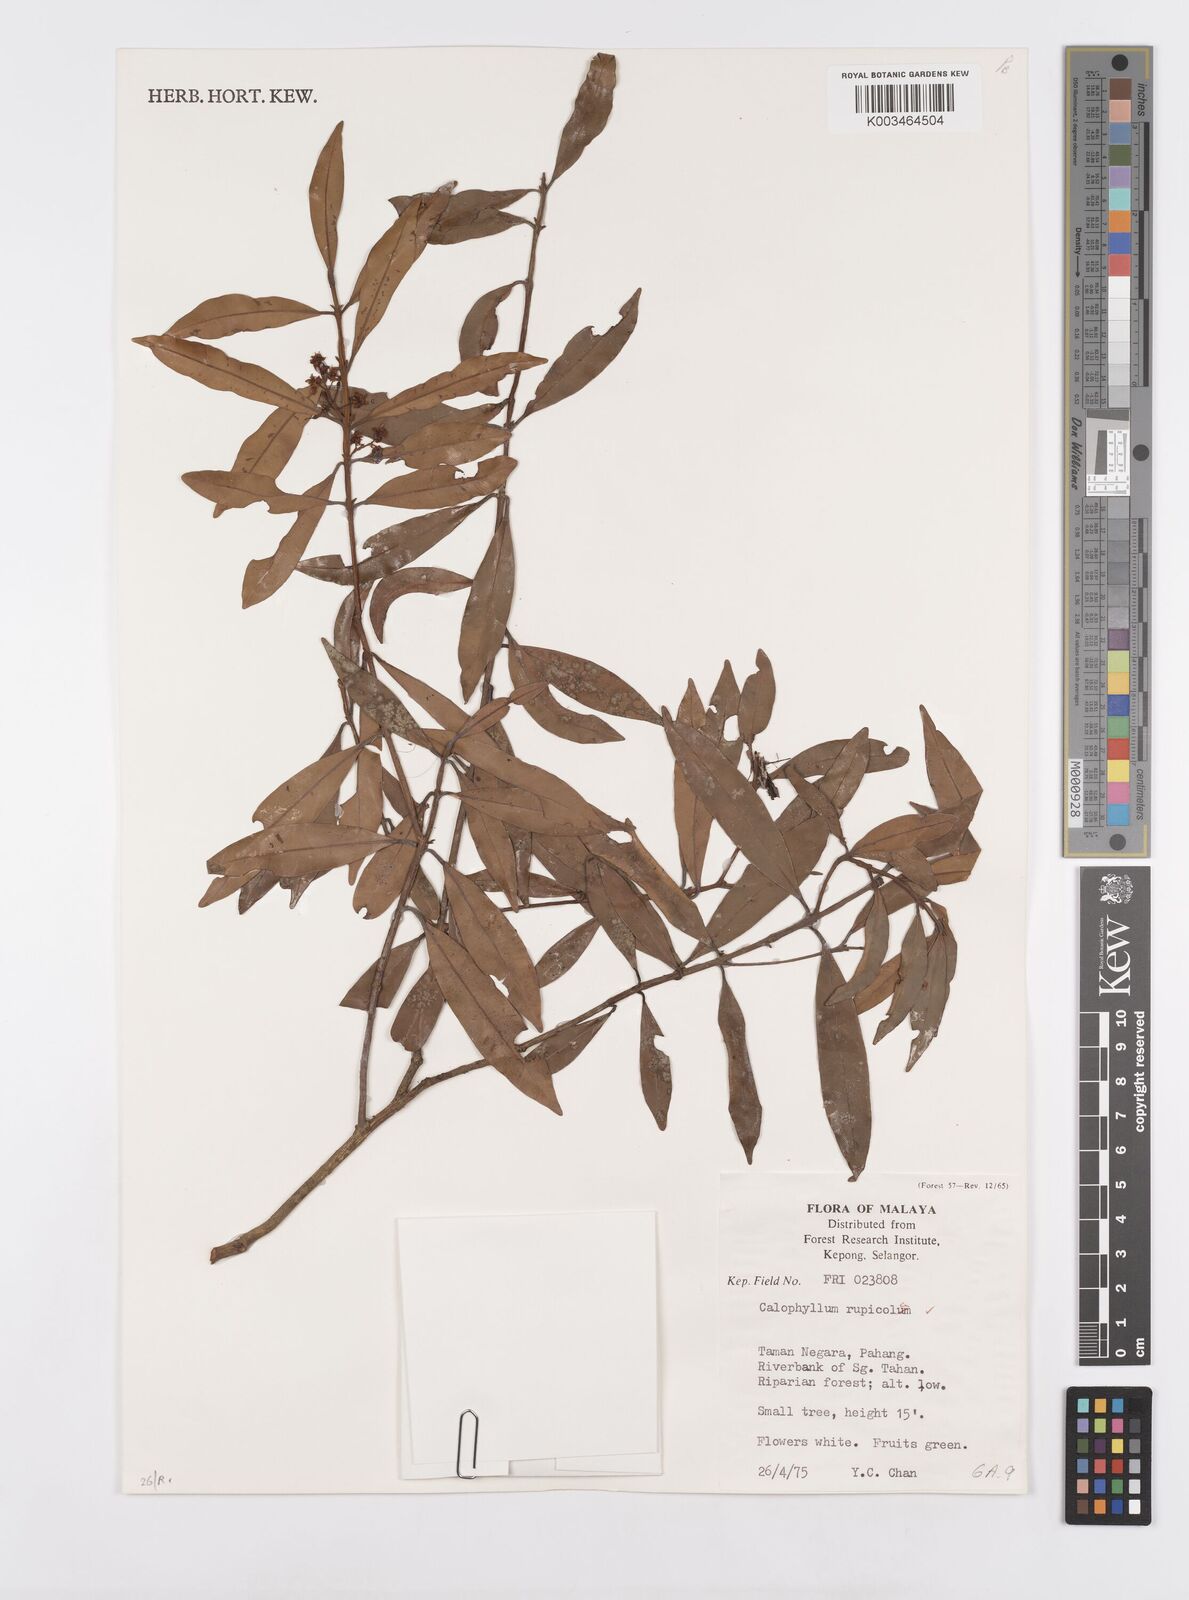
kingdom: Plantae
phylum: Tracheophyta
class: Magnoliopsida
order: Malpighiales
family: Calophyllaceae
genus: Calophyllum
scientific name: Calophyllum rupicola
